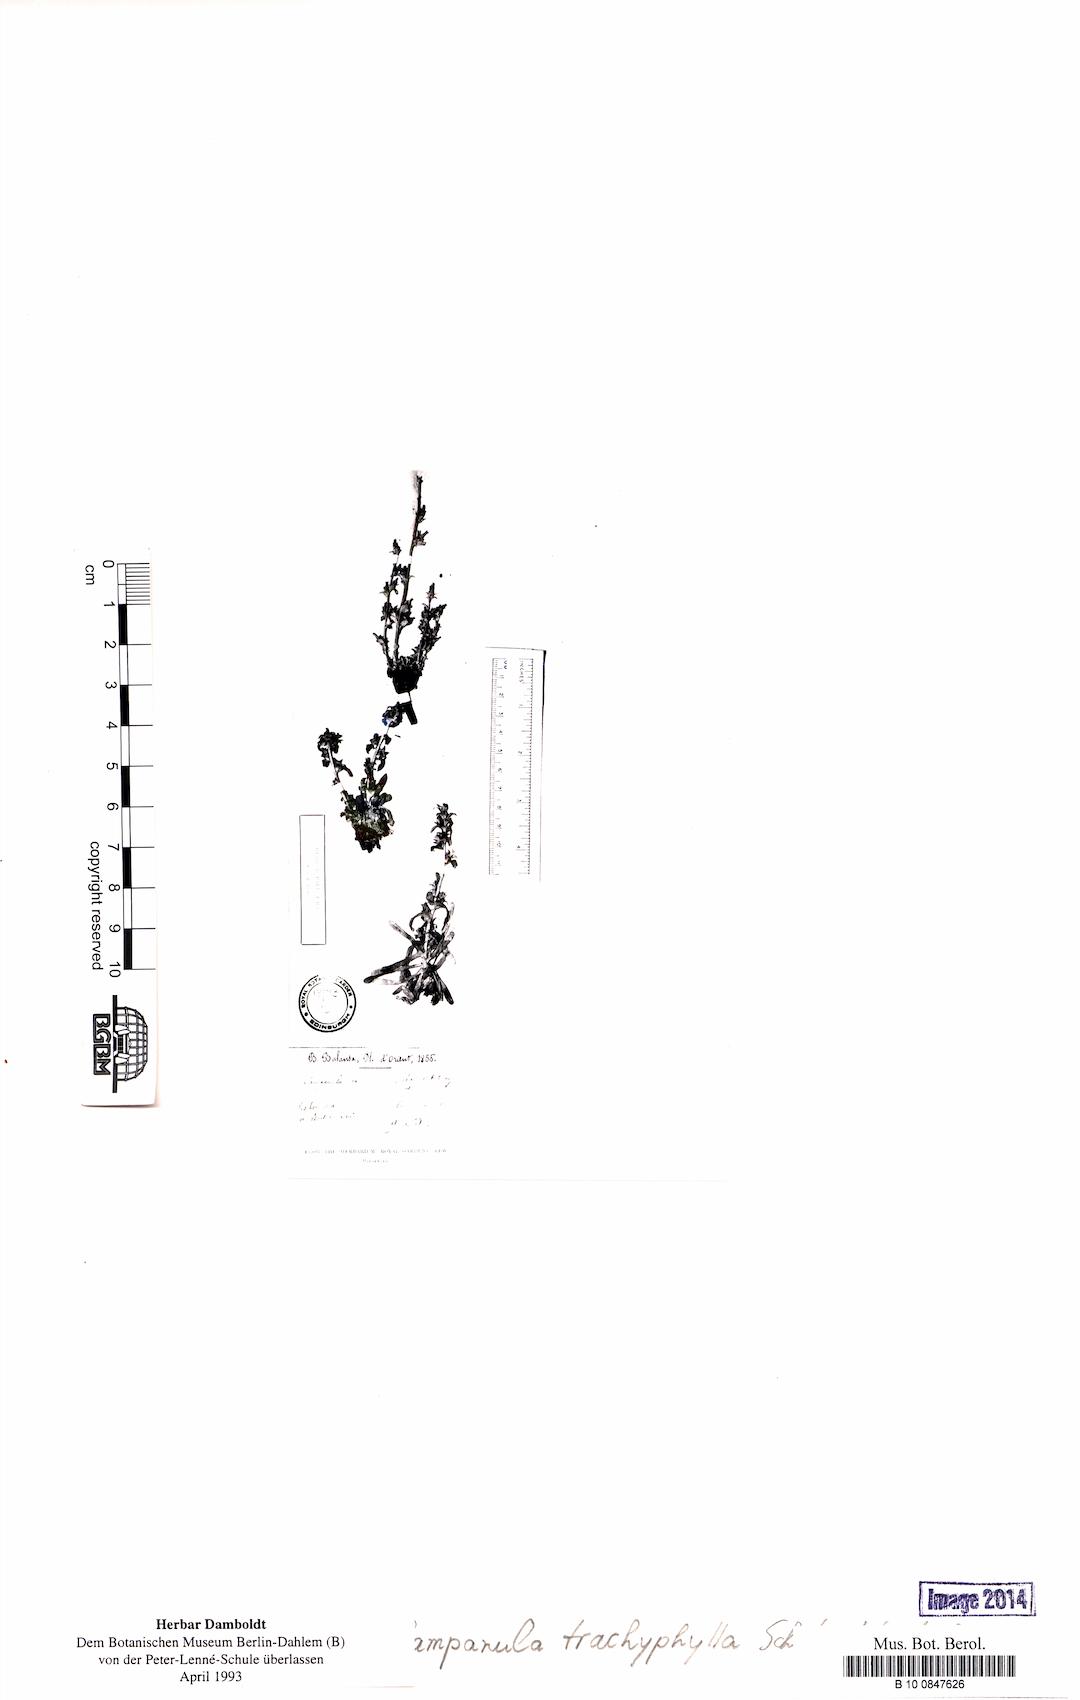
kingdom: Plantae
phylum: Tracheophyta
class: Magnoliopsida
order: Asterales
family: Campanulaceae
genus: Campanula
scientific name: Campanula trachyphylla
